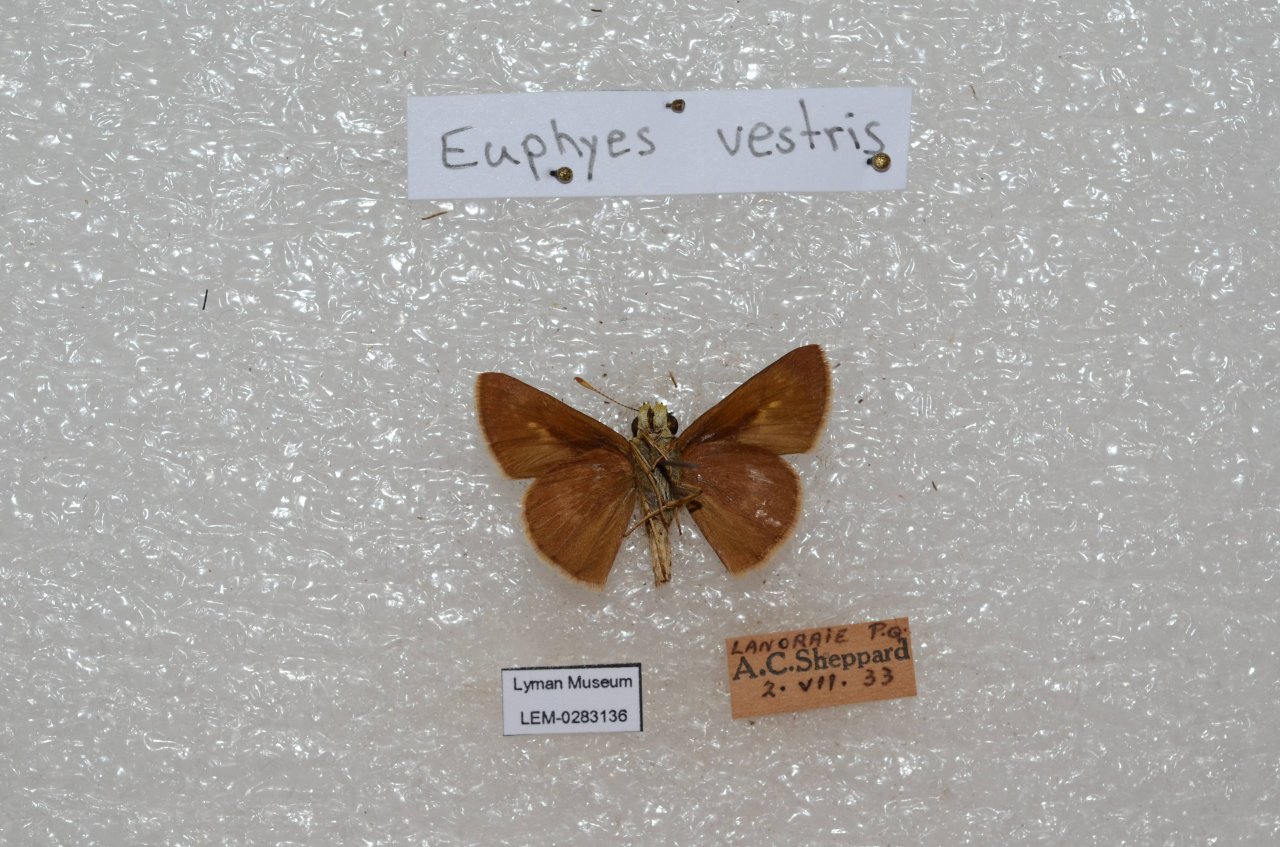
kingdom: Animalia
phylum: Arthropoda
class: Insecta
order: Lepidoptera
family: Hesperiidae
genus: Euphyes
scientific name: Euphyes vestris
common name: Dun Skipper
